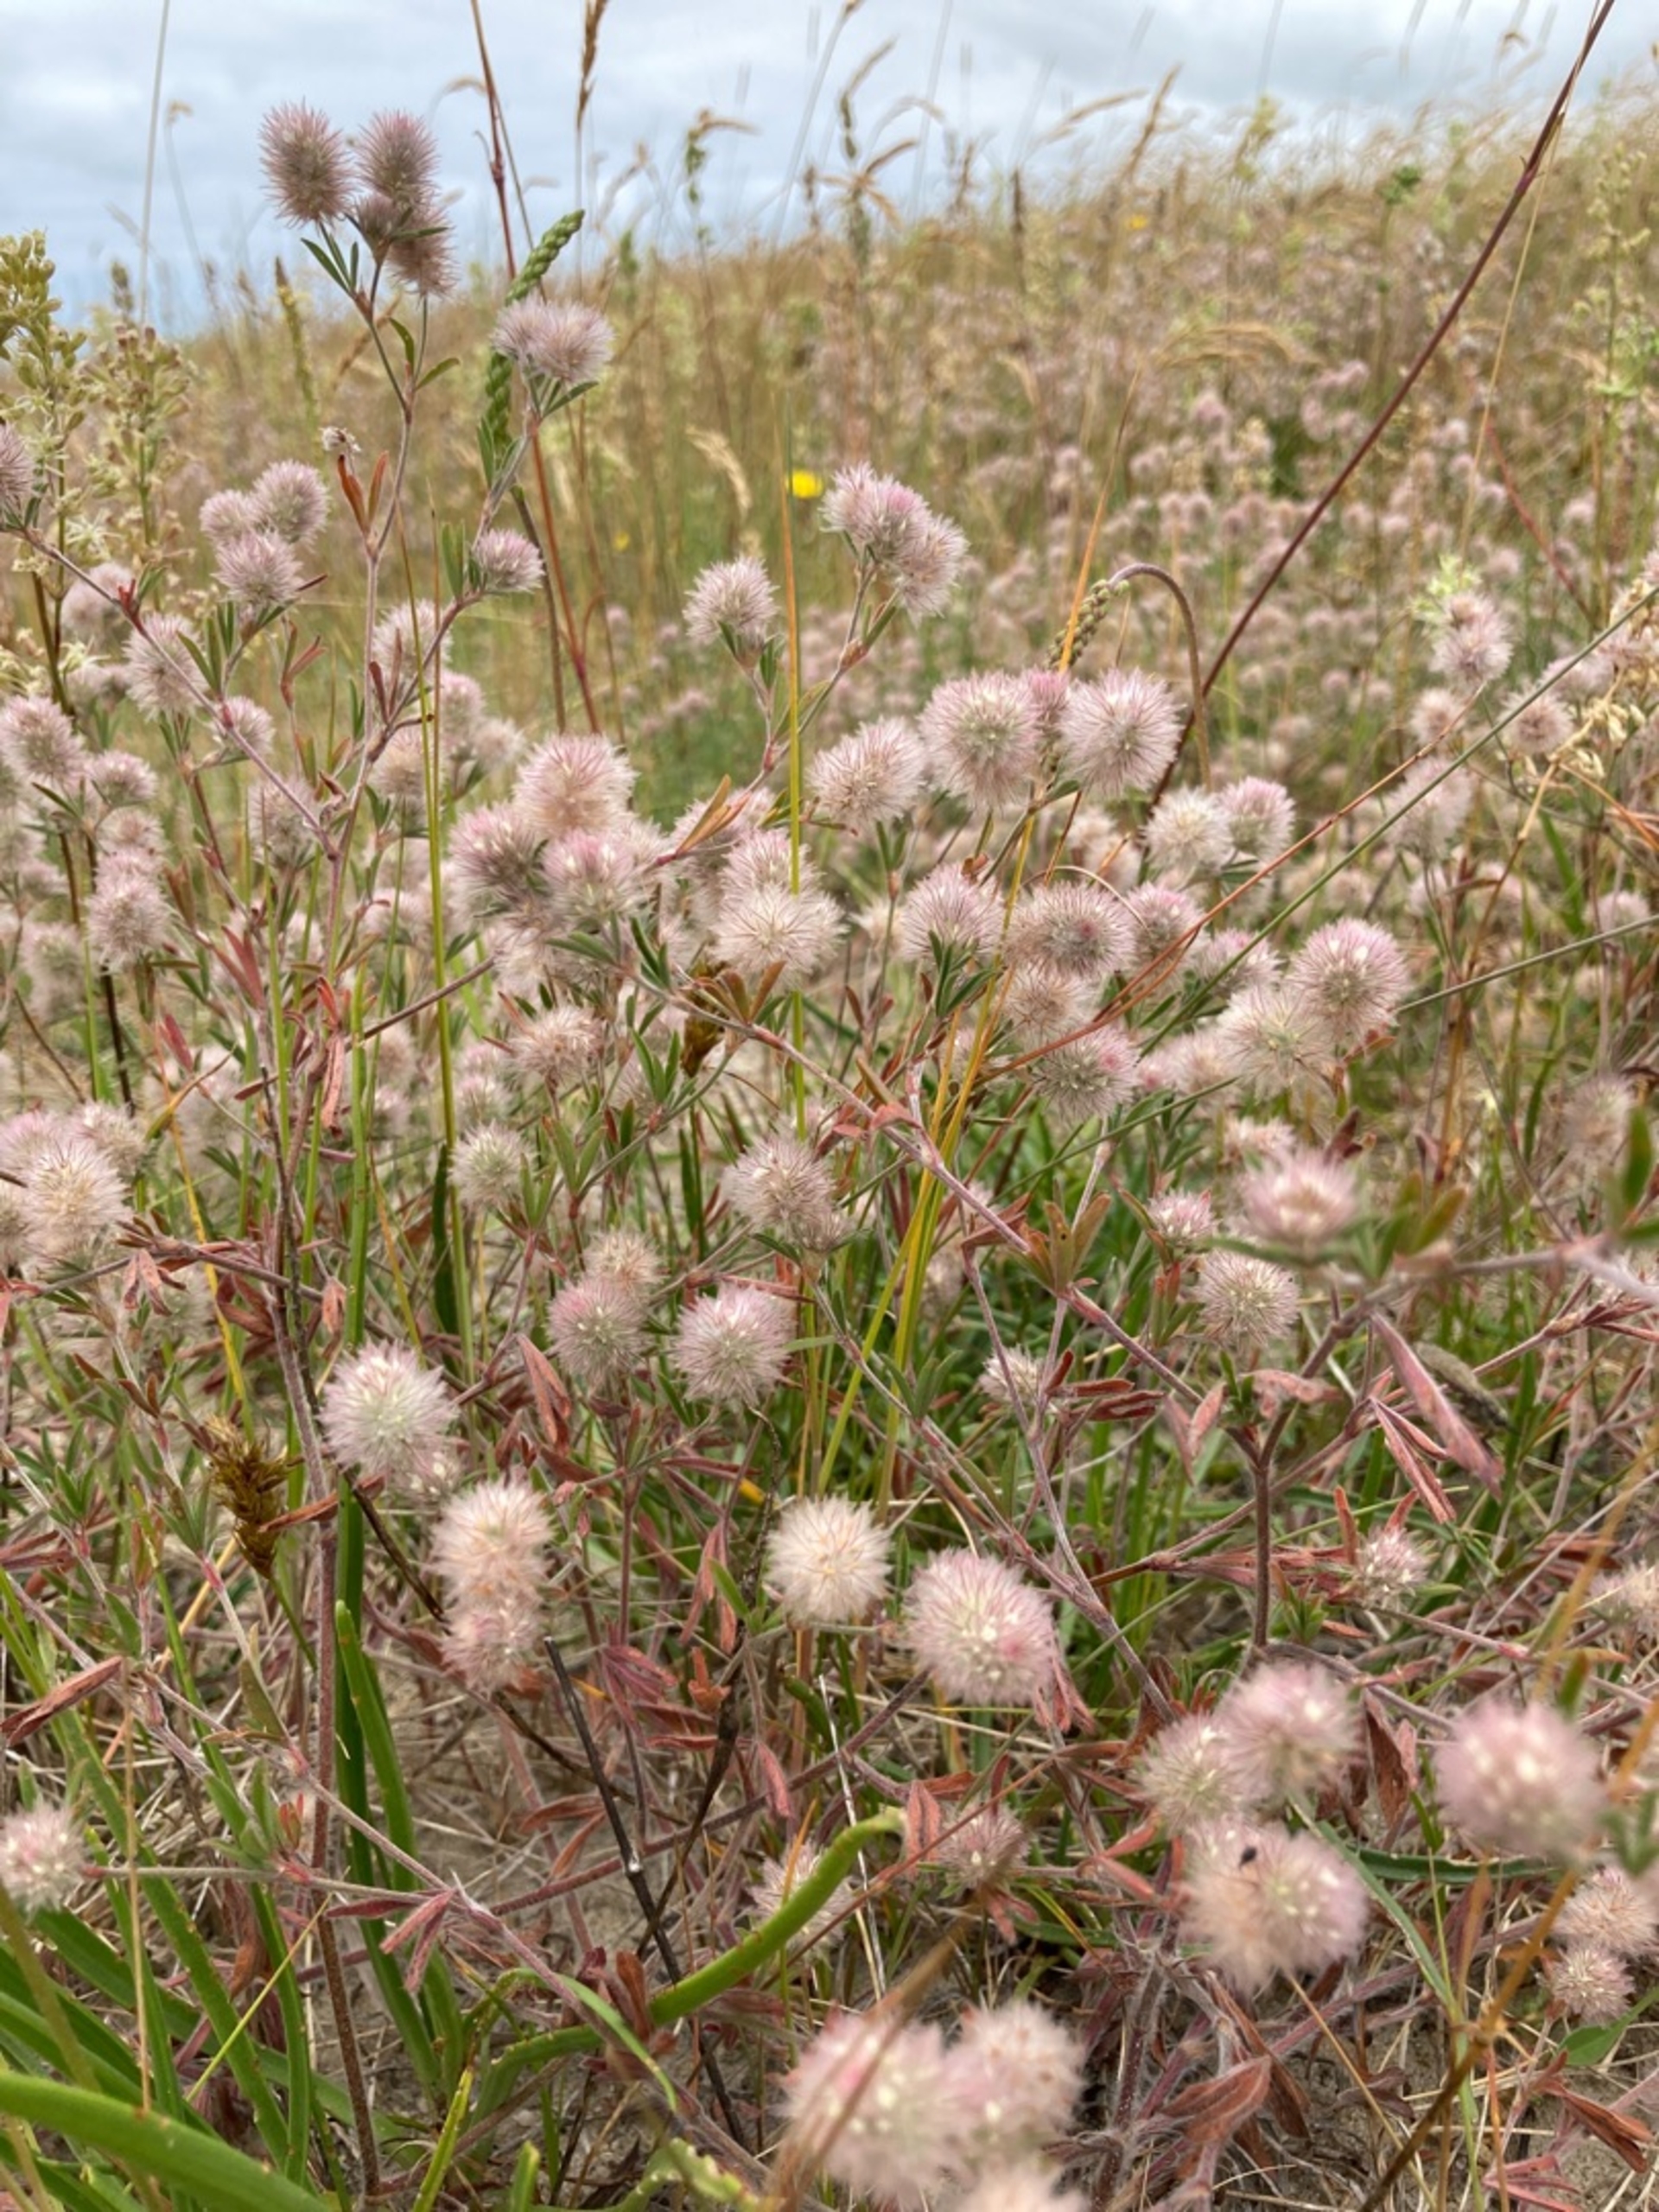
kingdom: Plantae
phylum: Tracheophyta
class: Magnoliopsida
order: Fabales
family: Fabaceae
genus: Trifolium
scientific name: Trifolium arvense
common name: Hare-kløver
